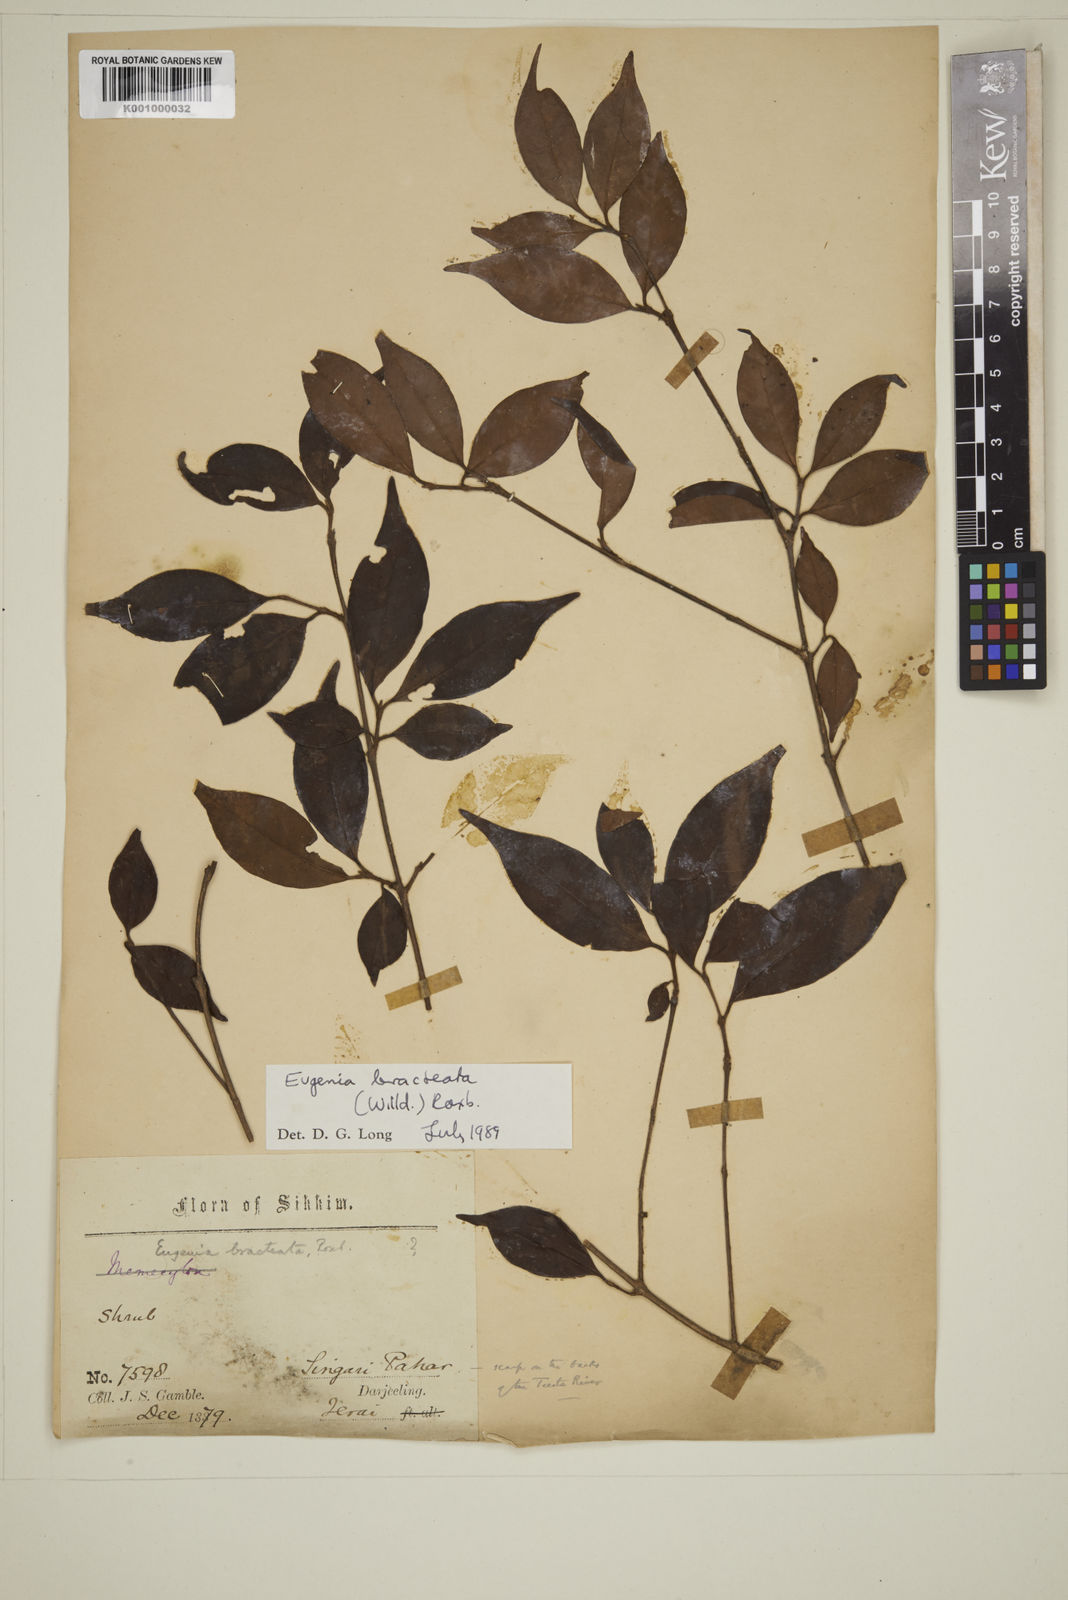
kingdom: Plantae
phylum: Tracheophyta
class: Magnoliopsida
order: Myrtales
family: Myrtaceae
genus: Myrcia
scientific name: Myrcia bracteata
